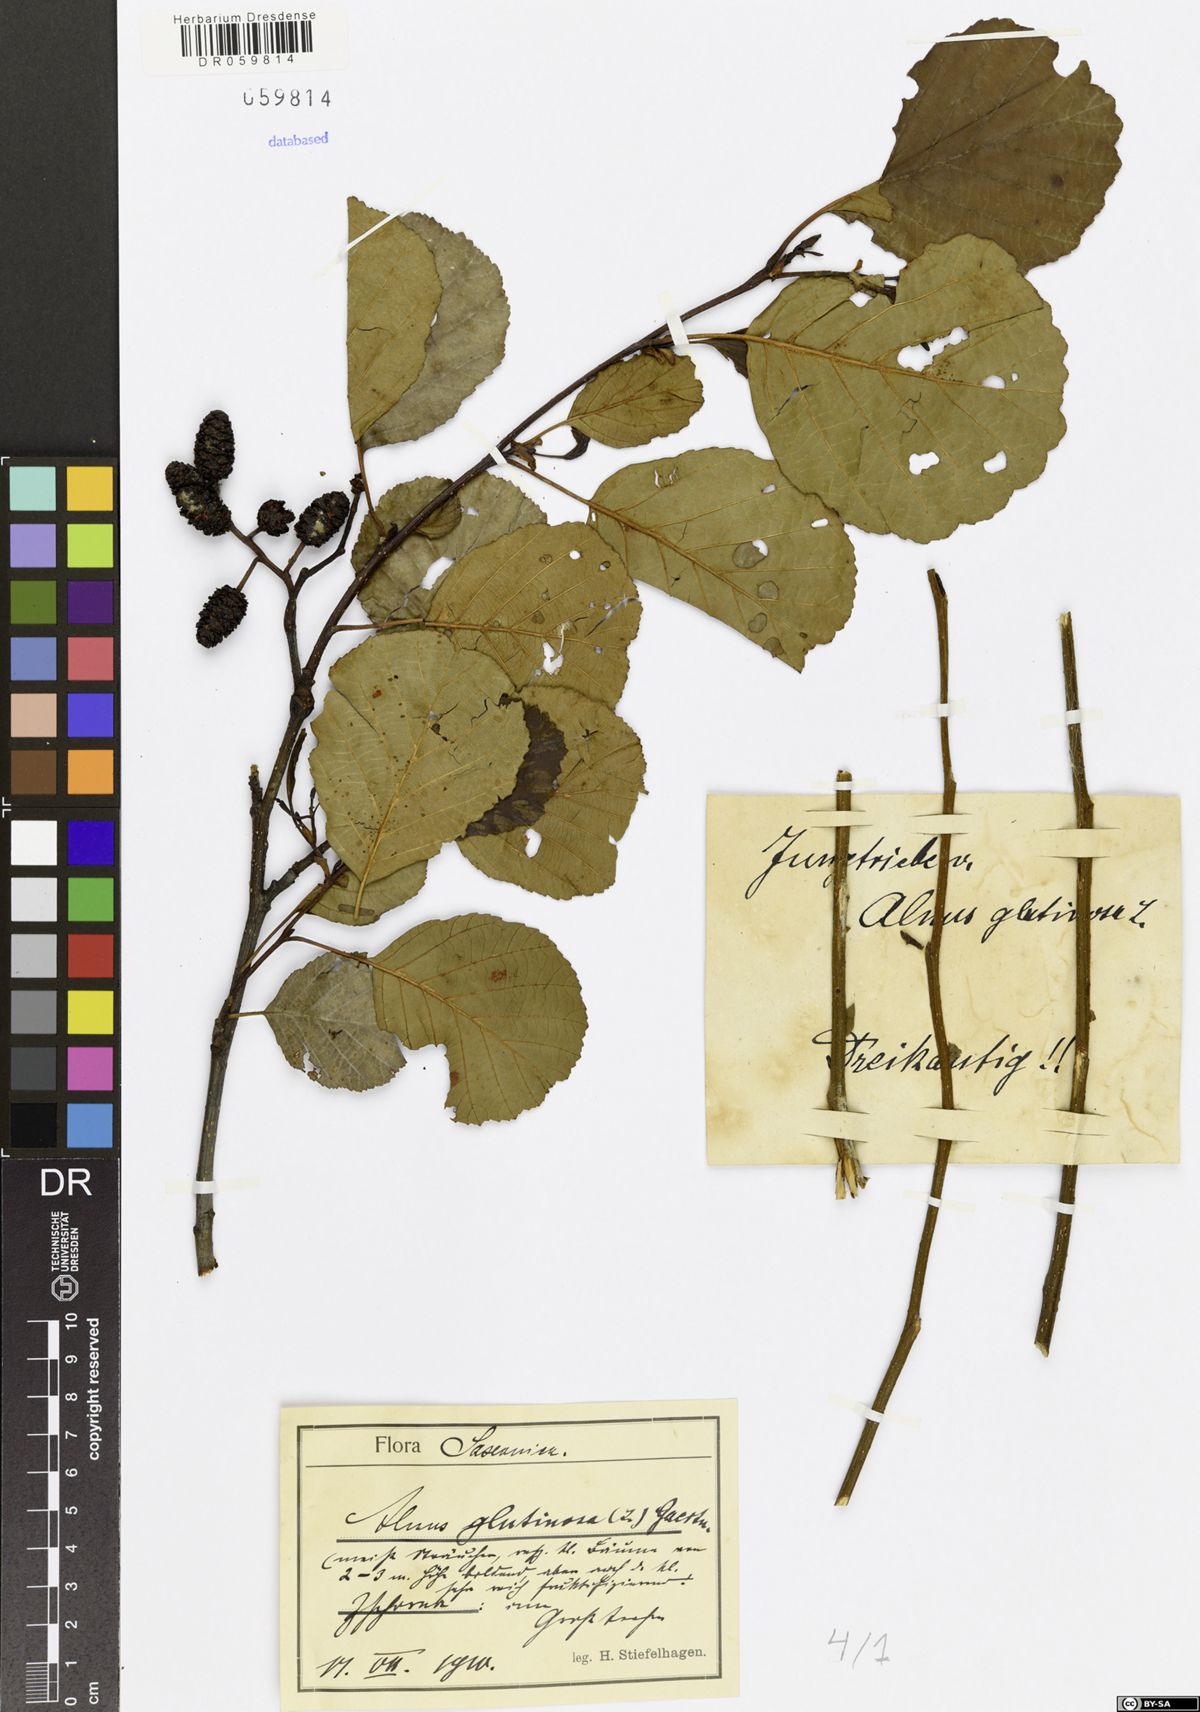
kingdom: Plantae
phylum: Tracheophyta
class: Magnoliopsida
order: Fagales
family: Betulaceae
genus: Alnus
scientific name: Alnus glutinosa
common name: Black alder
